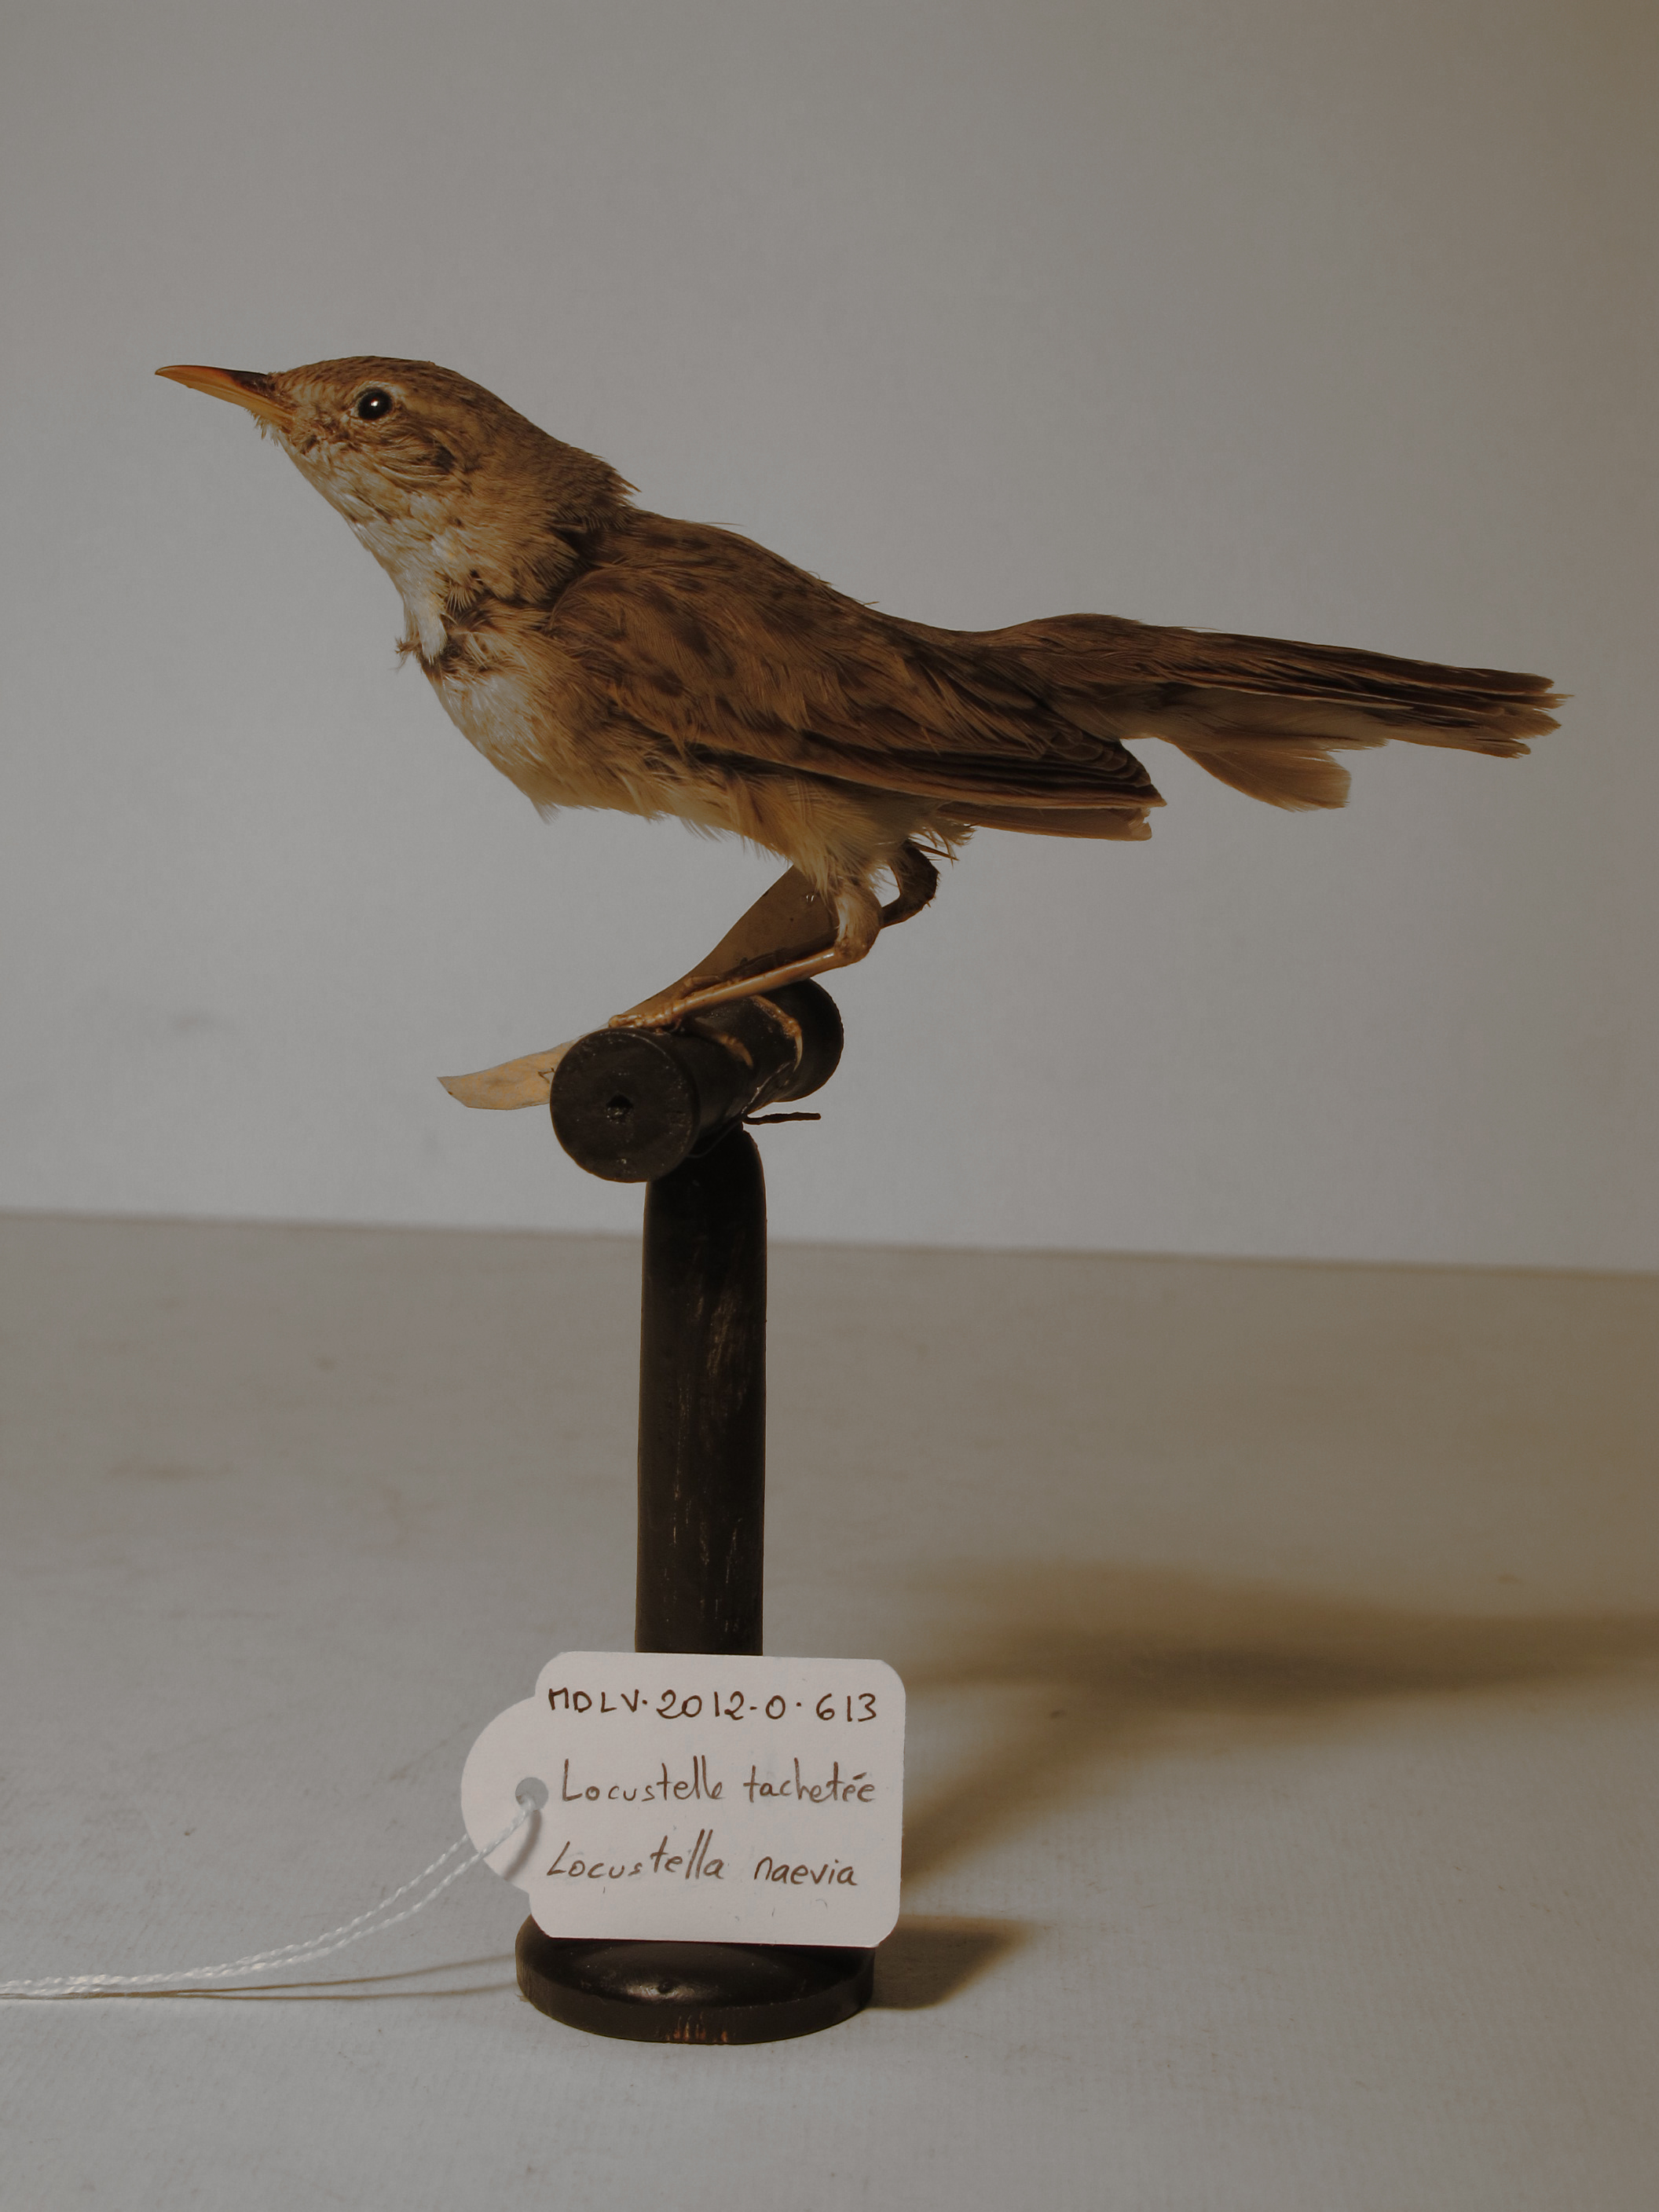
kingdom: Animalia
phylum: Chordata
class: Aves
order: Passeriformes
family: Locustellidae
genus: Locustella
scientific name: Locustella naevia
